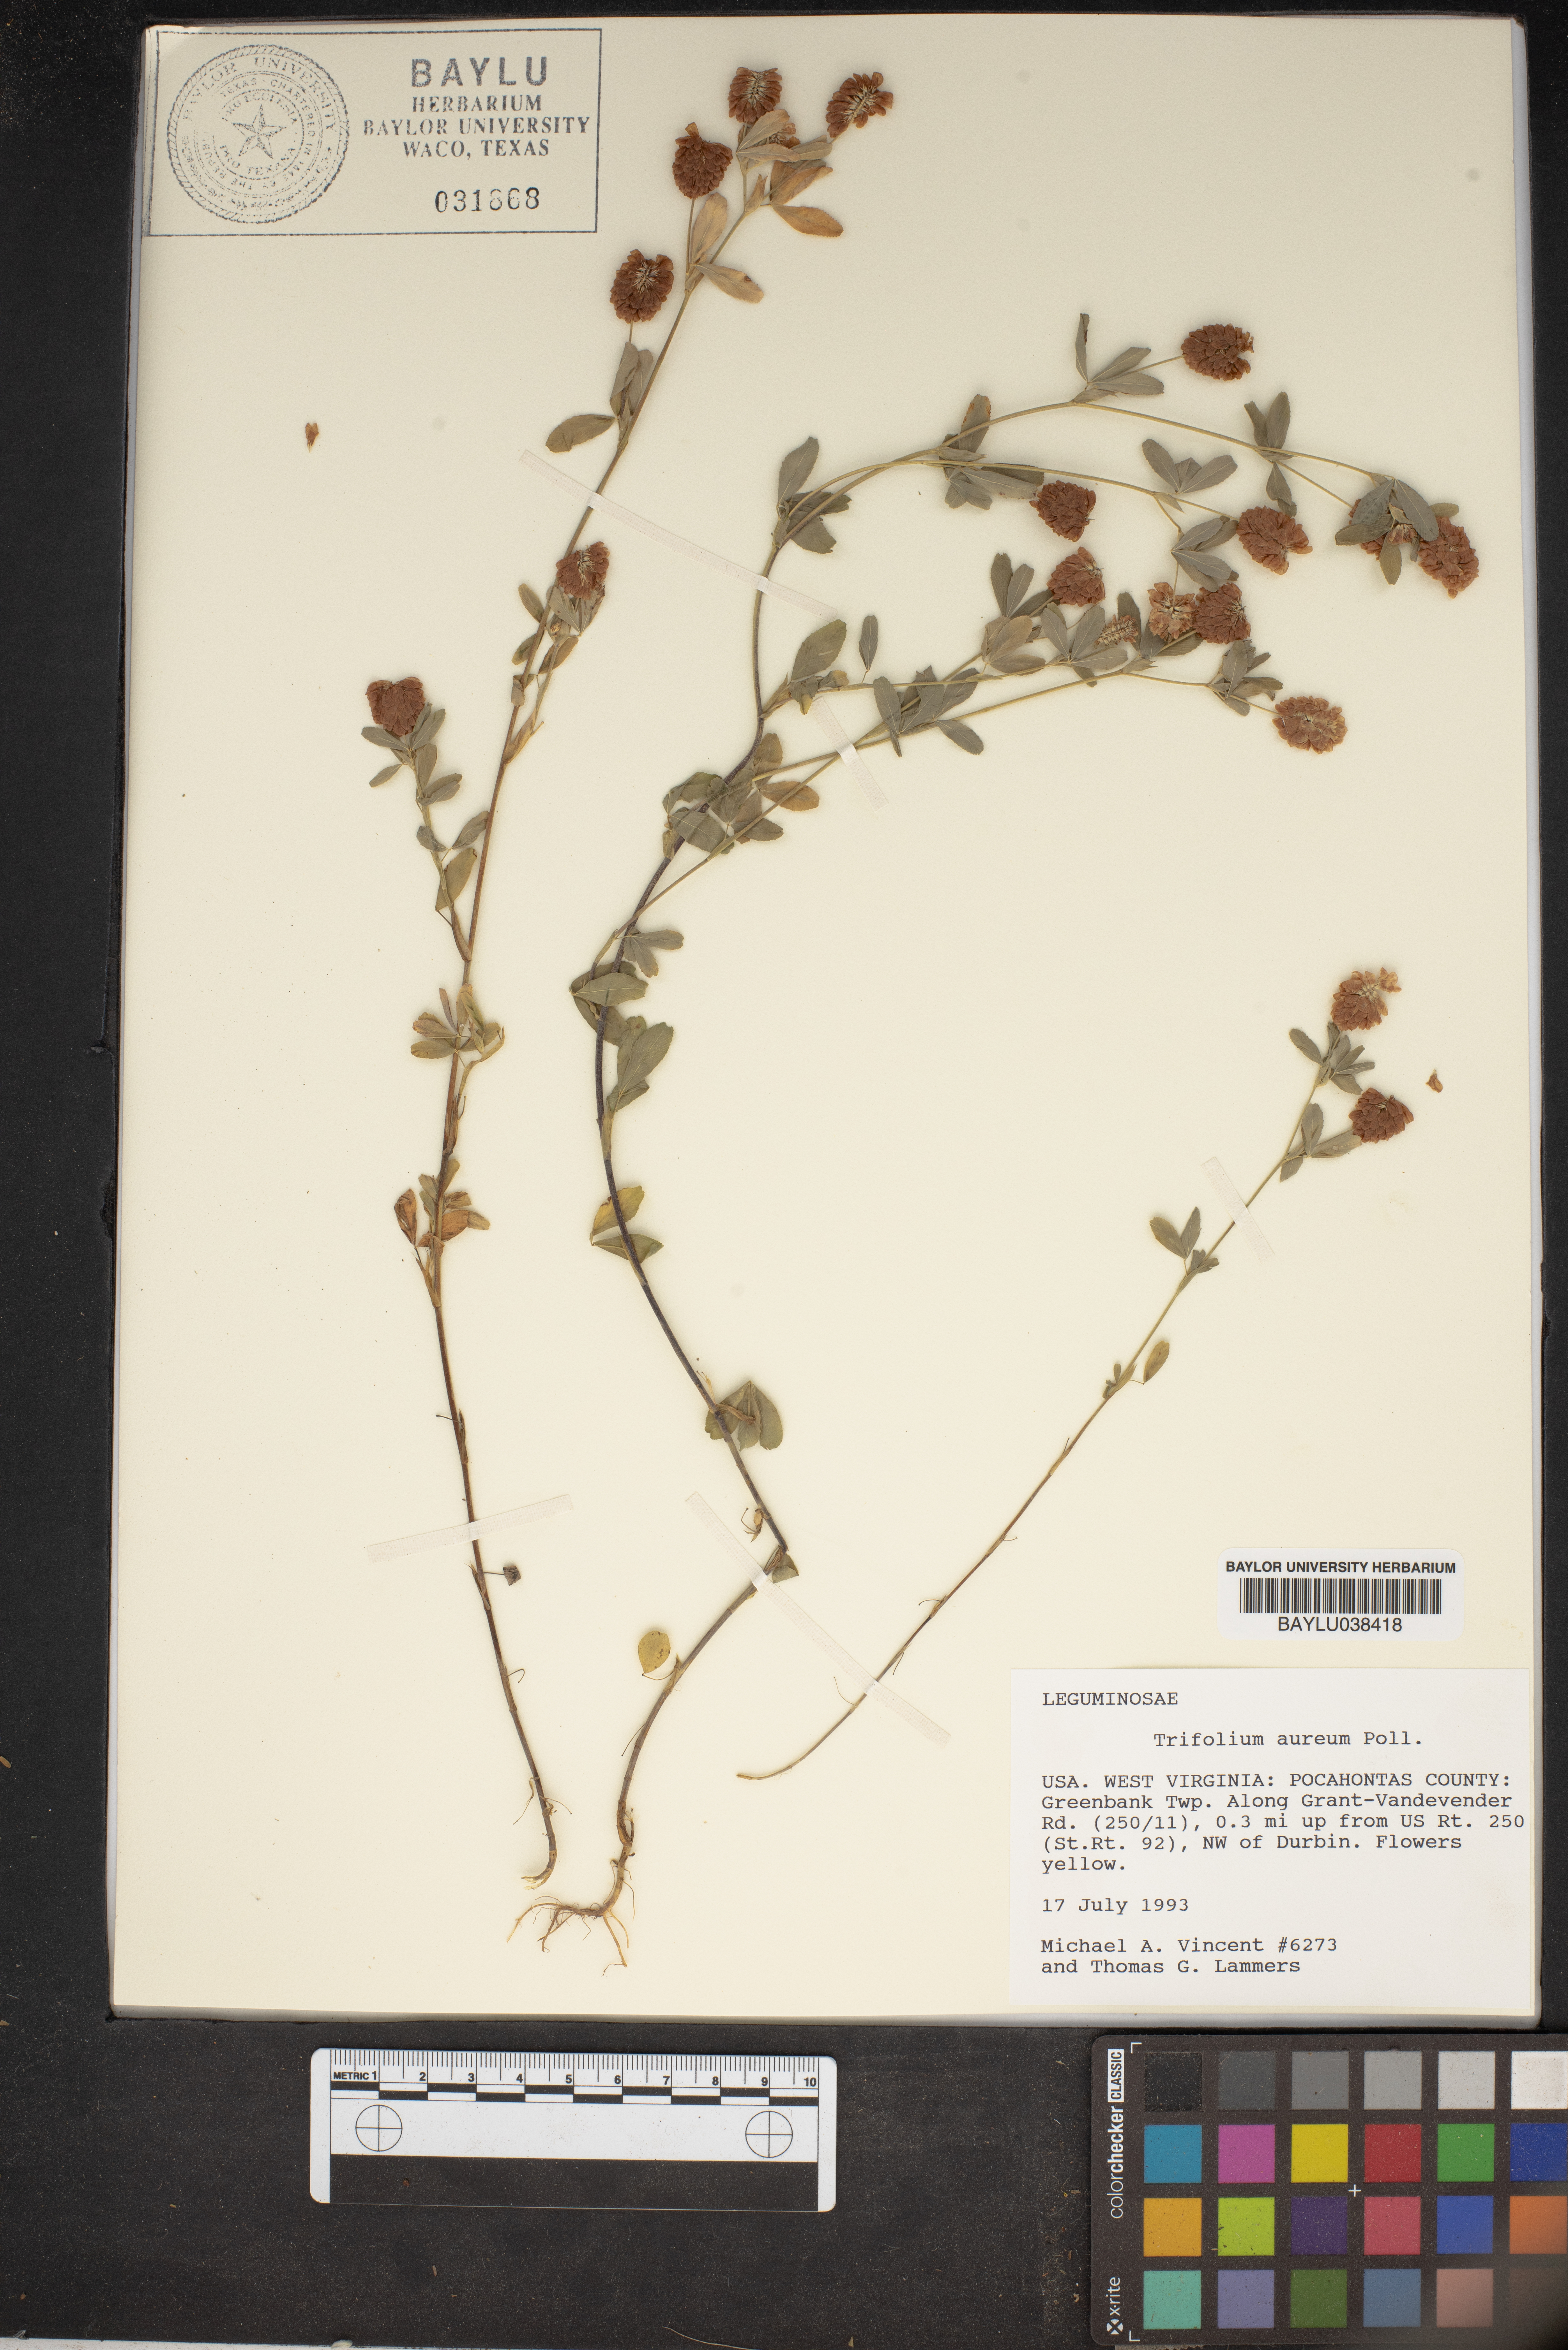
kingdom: Plantae
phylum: Tracheophyta
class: Magnoliopsida
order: Fabales
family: Fabaceae
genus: Trifolium
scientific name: Trifolium aureum
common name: Golden clover
